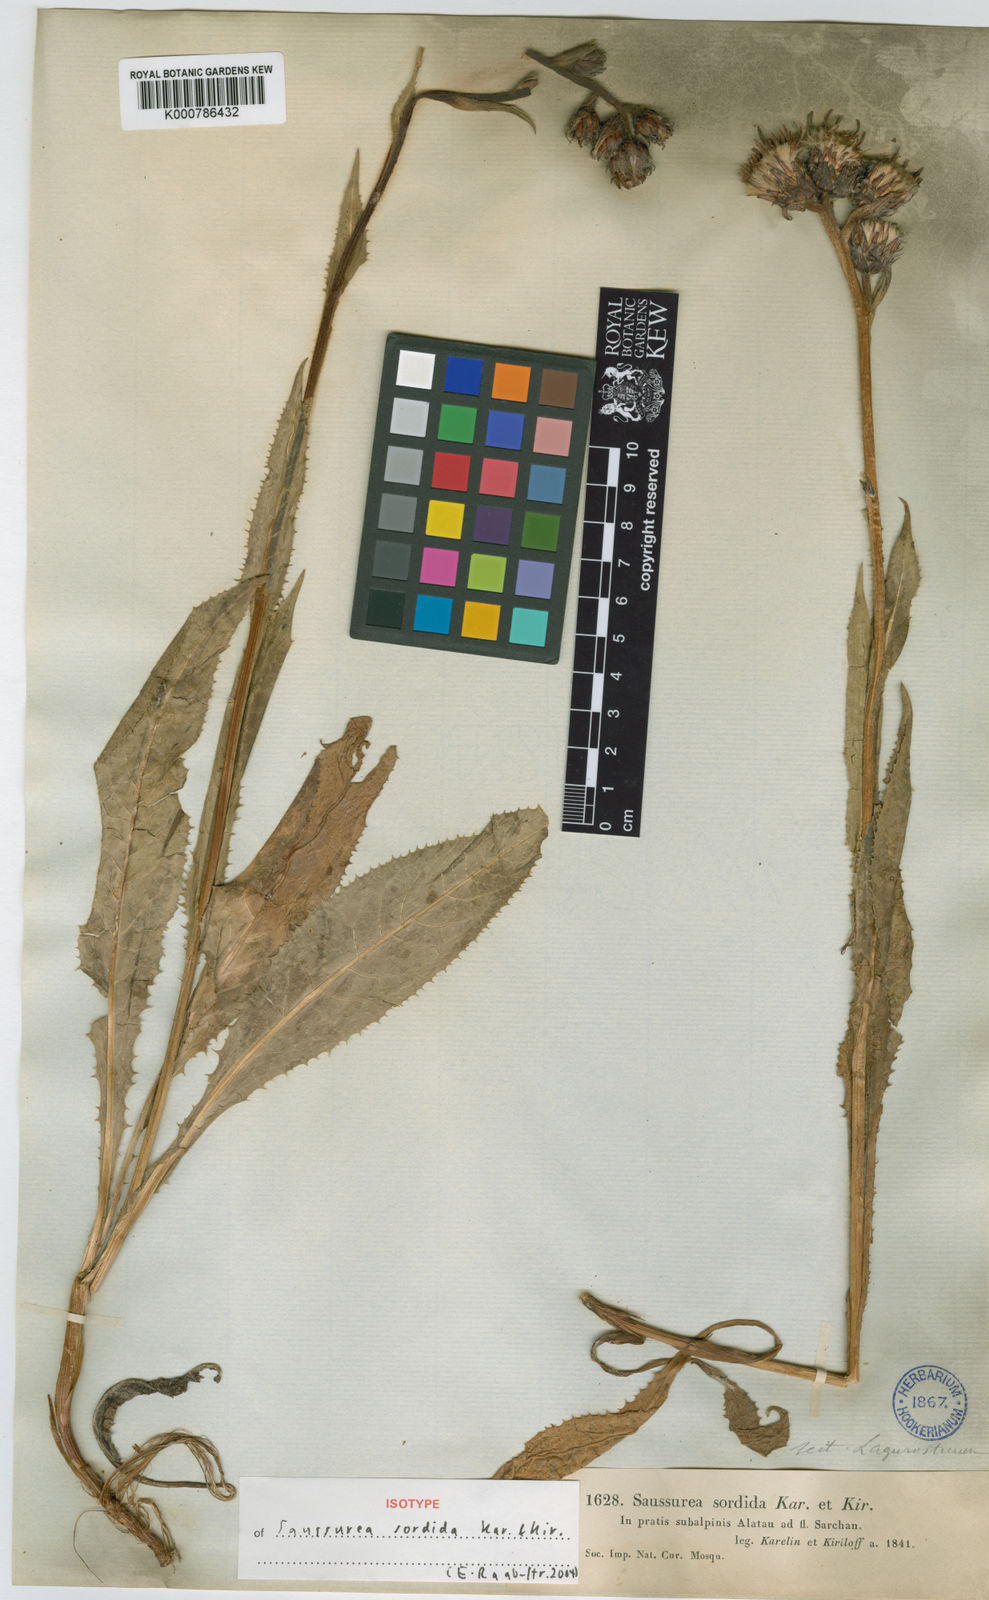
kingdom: Plantae
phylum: Tracheophyta
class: Magnoliopsida
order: Asterales
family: Asteraceae
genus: Saussurea
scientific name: Saussurea sordida
